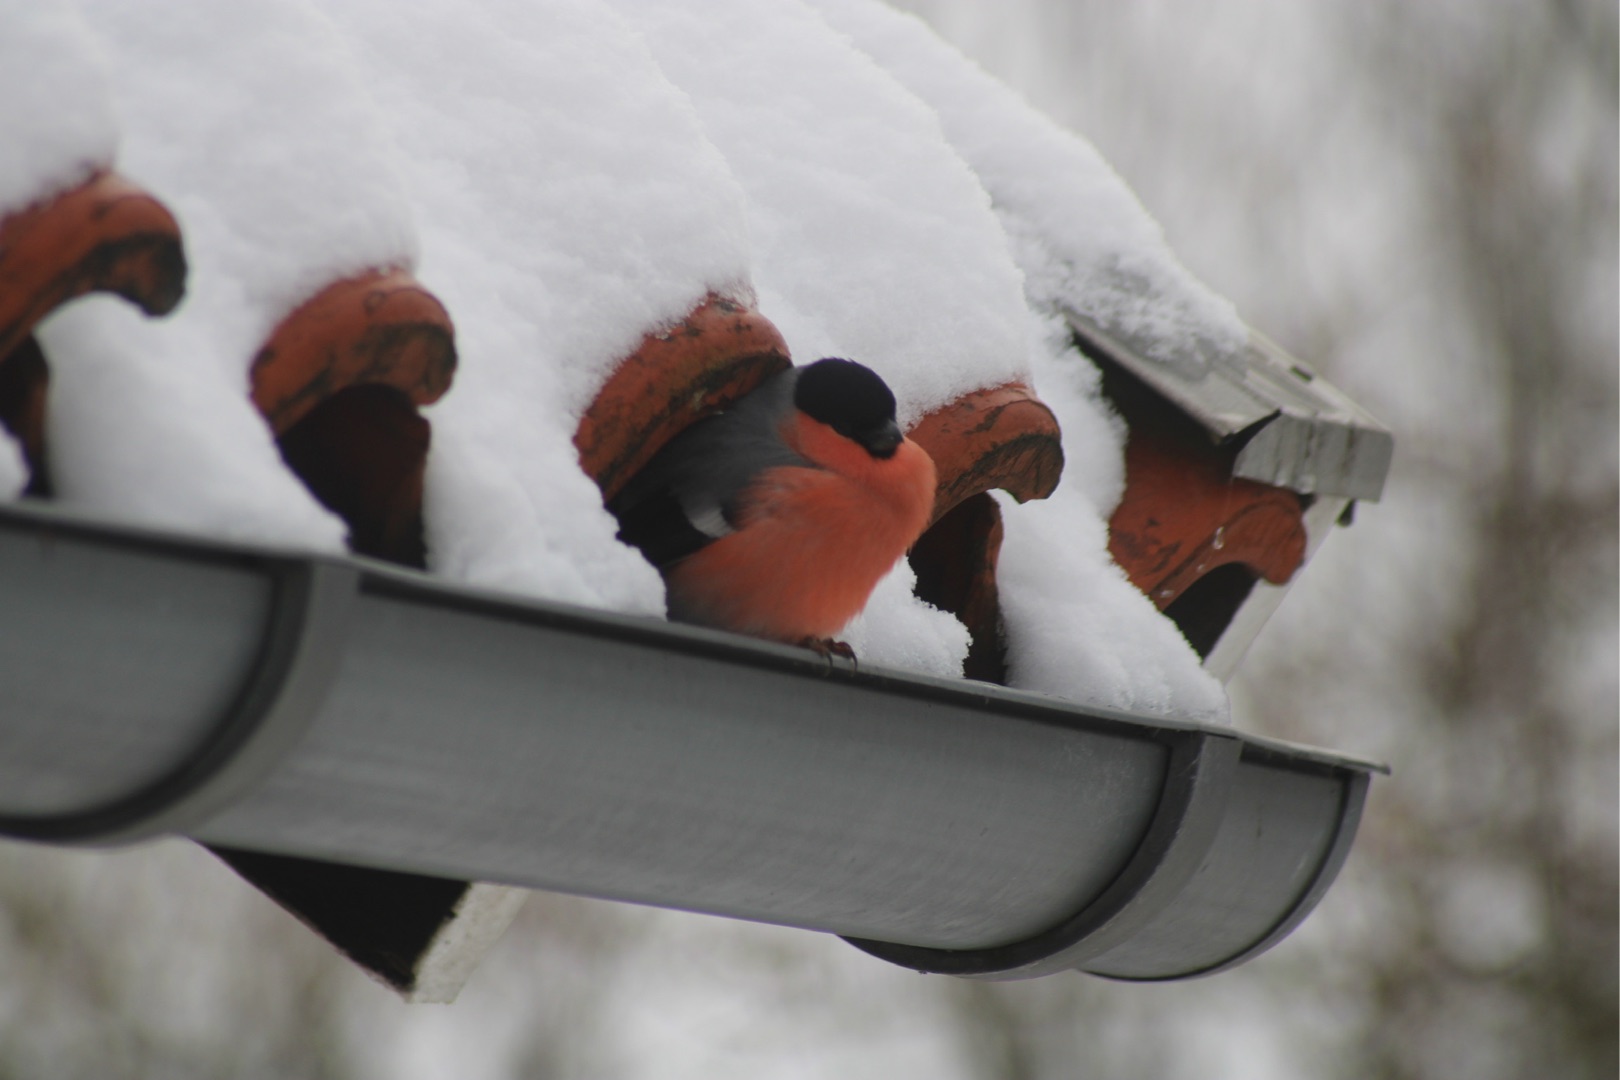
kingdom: Animalia
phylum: Chordata
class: Aves
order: Passeriformes
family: Fringillidae
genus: Pyrrhula
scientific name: Pyrrhula pyrrhula
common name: Dompap
